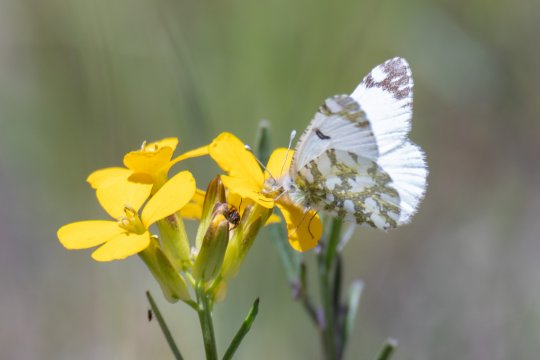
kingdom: Animalia
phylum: Arthropoda
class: Insecta
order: Lepidoptera
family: Pieridae
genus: Euchloe
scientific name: Euchloe ausonides
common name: Large Marble
